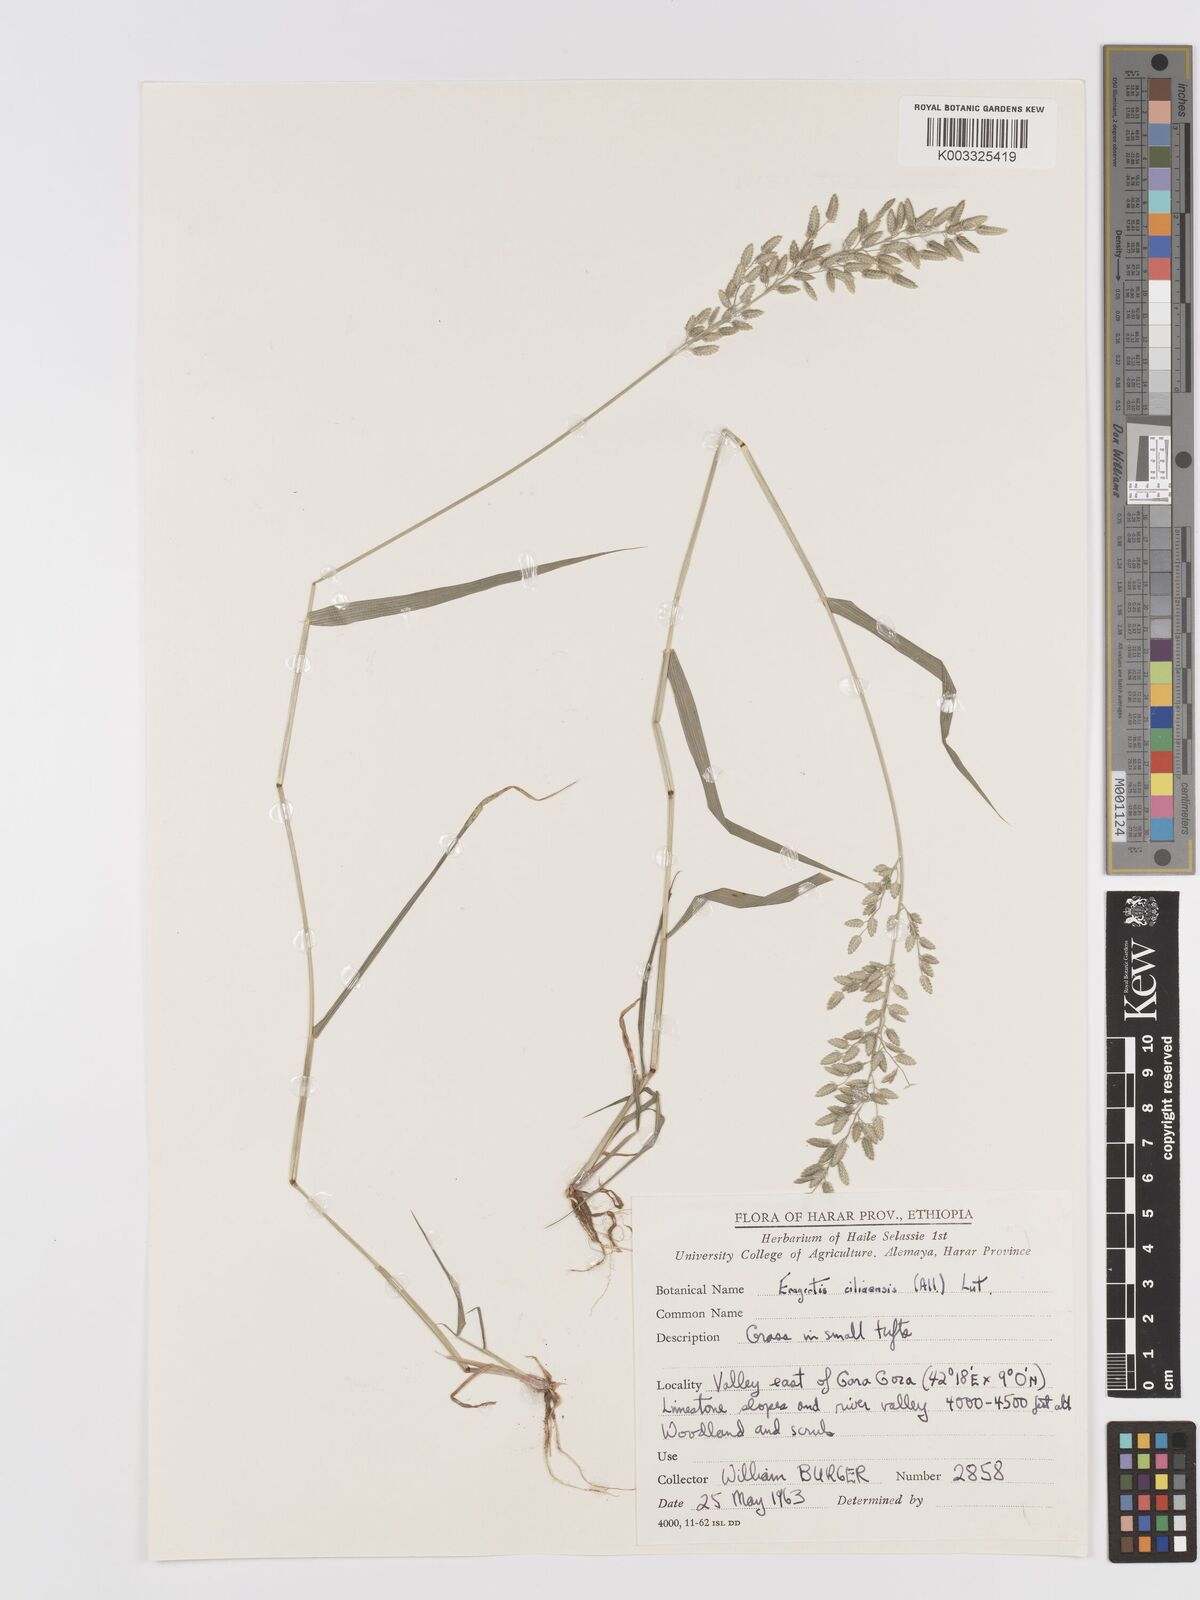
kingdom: Plantae
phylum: Tracheophyta
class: Liliopsida
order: Poales
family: Poaceae
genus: Eragrostis
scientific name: Eragrostis cilianensis
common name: Stinkgrass
